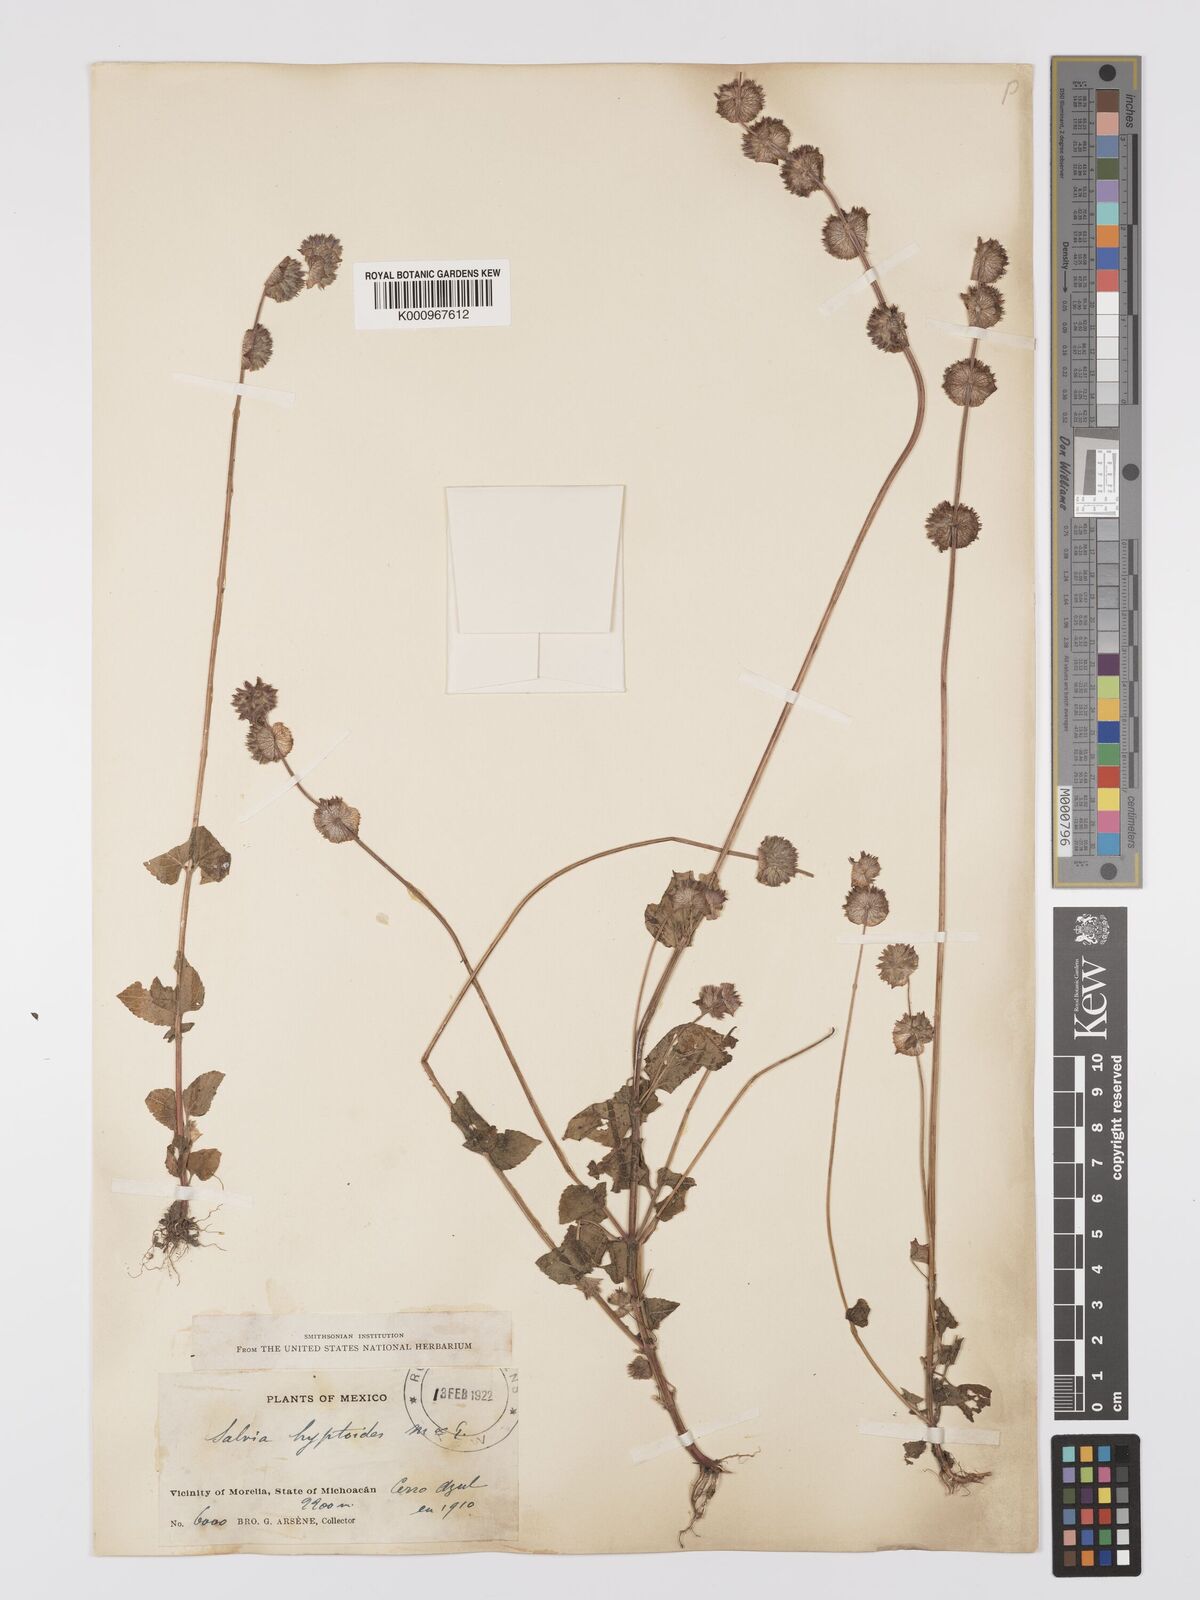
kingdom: Plantae
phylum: Tracheophyta
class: Magnoliopsida
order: Lamiales
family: Lamiaceae
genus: Salvia
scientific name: Salvia lasiocephala
